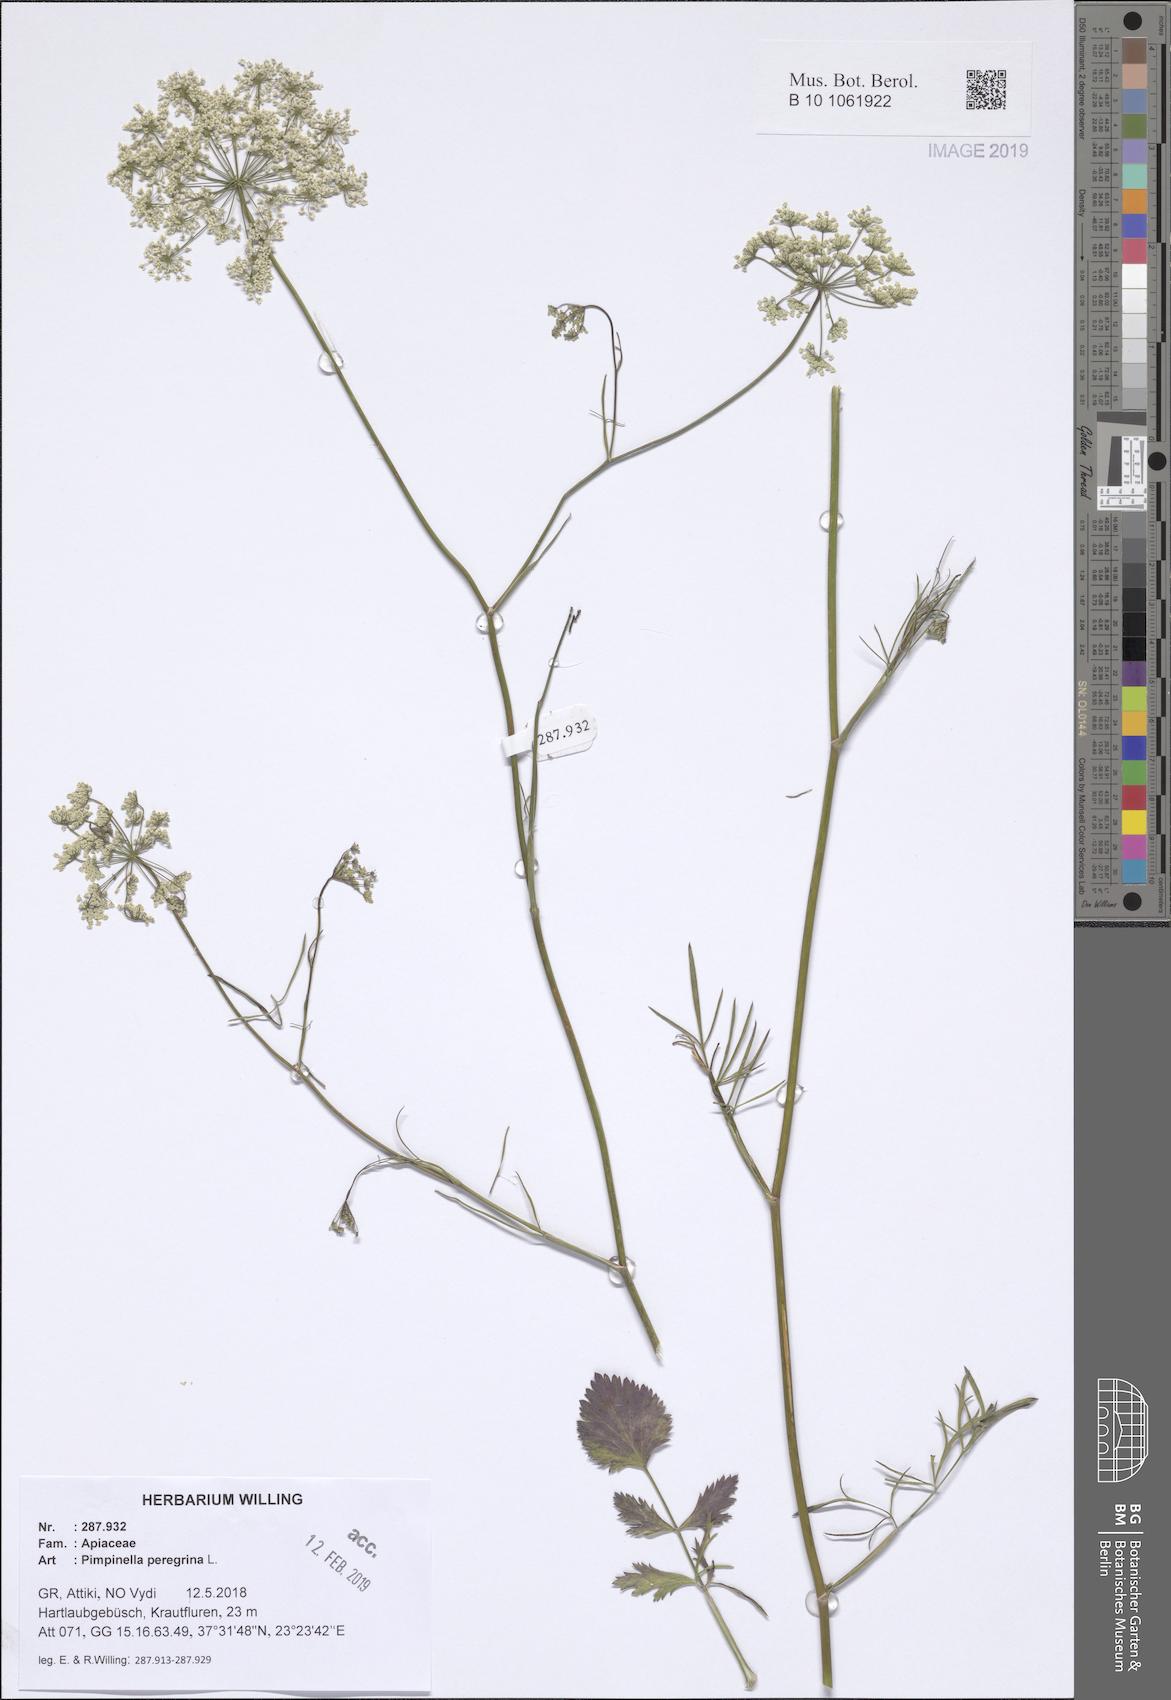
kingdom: Plantae
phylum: Tracheophyta
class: Magnoliopsida
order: Apiales
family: Apiaceae
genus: Pimpinella
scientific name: Pimpinella peregrina
